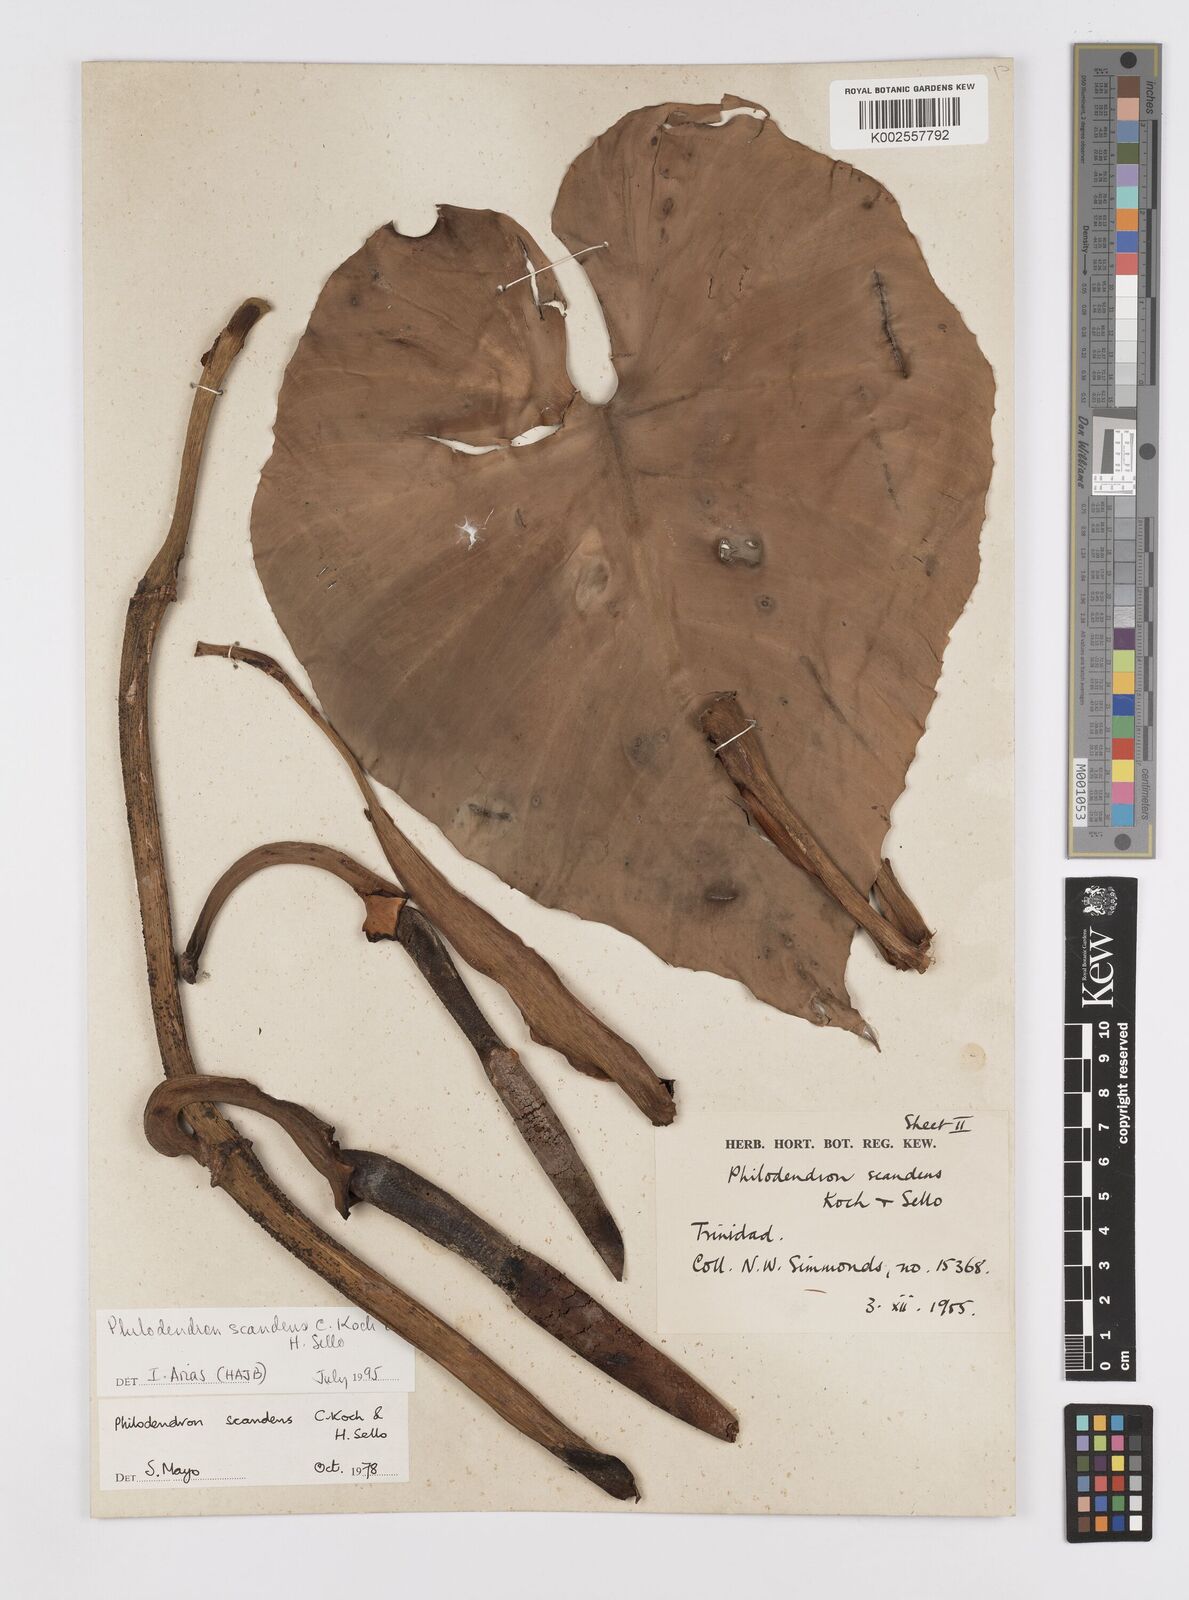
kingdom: Plantae
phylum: Tracheophyta
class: Liliopsida
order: Alismatales
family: Araceae
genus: Philodendron
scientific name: Philodendron hederaceum
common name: Vilevine
